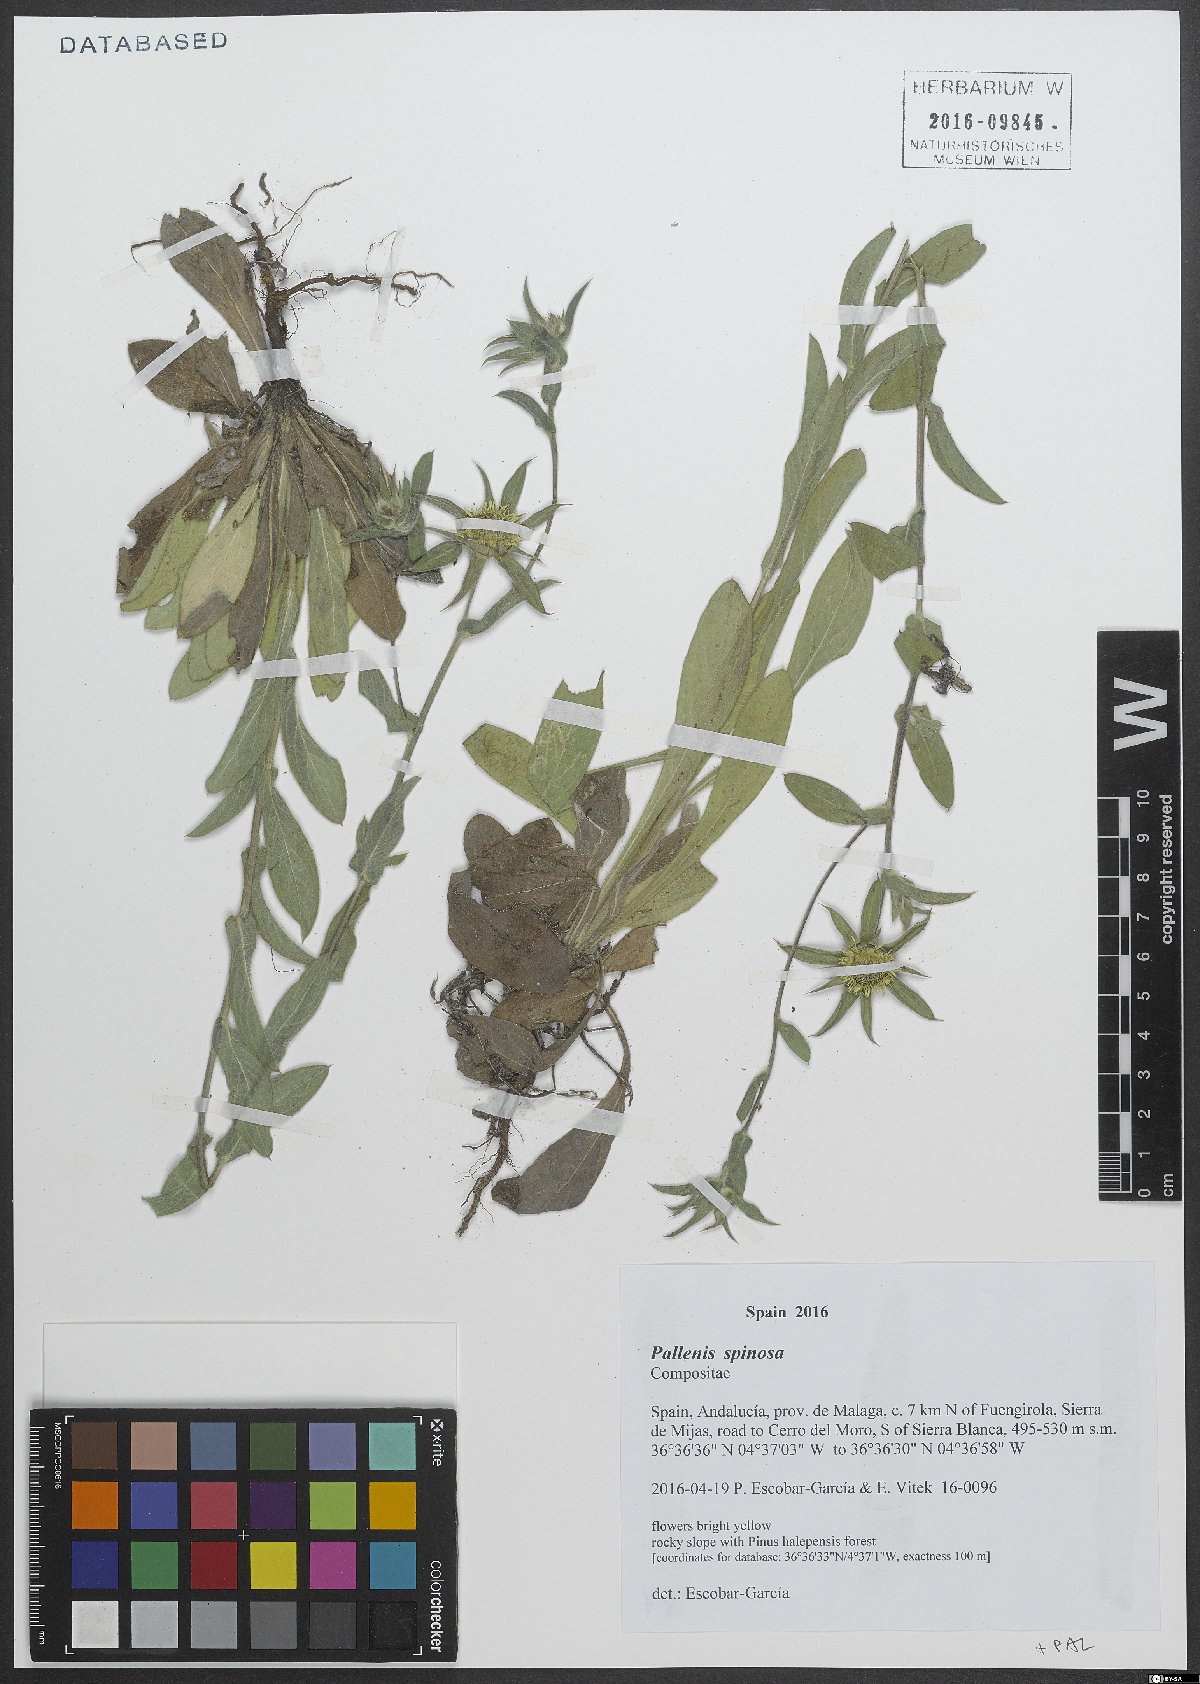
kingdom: Plantae
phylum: Tracheophyta
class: Magnoliopsida
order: Asterales
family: Asteraceae
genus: Pallenis
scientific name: Pallenis spinosa
